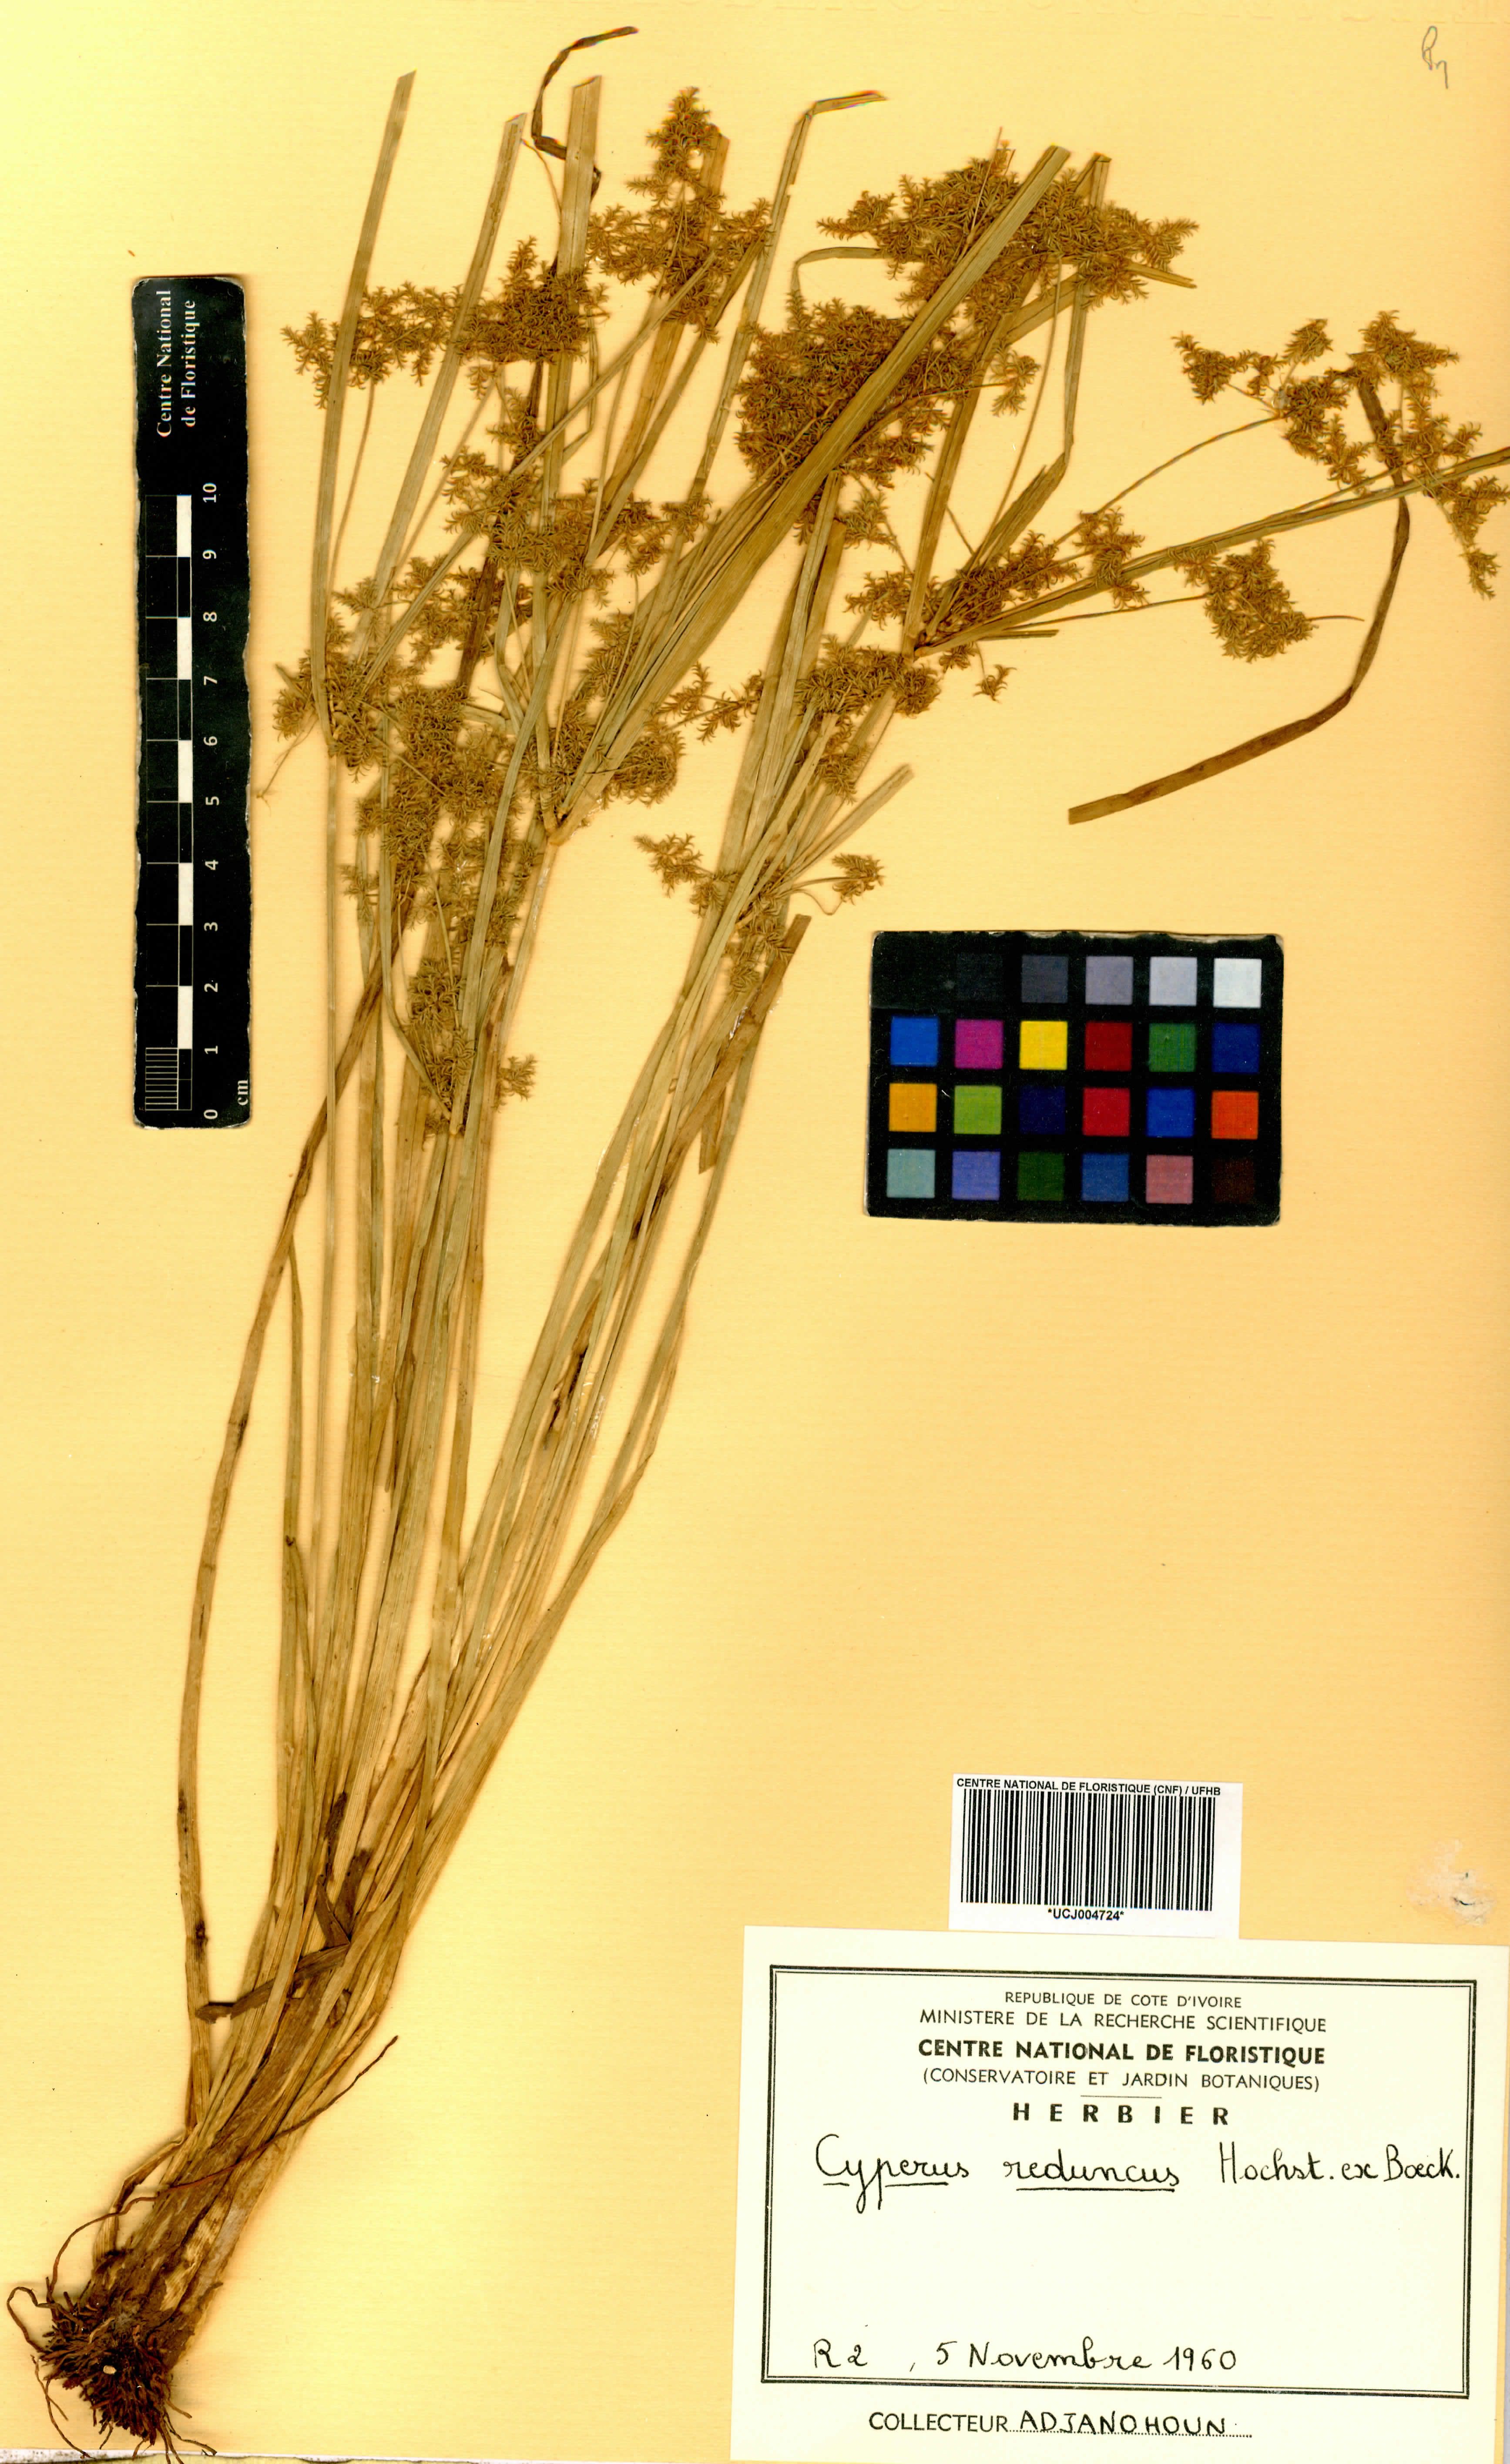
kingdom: Plantae
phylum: Tracheophyta
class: Liliopsida
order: Poales
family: Cyperaceae
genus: Cyperus
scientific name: Cyperus reduncus
